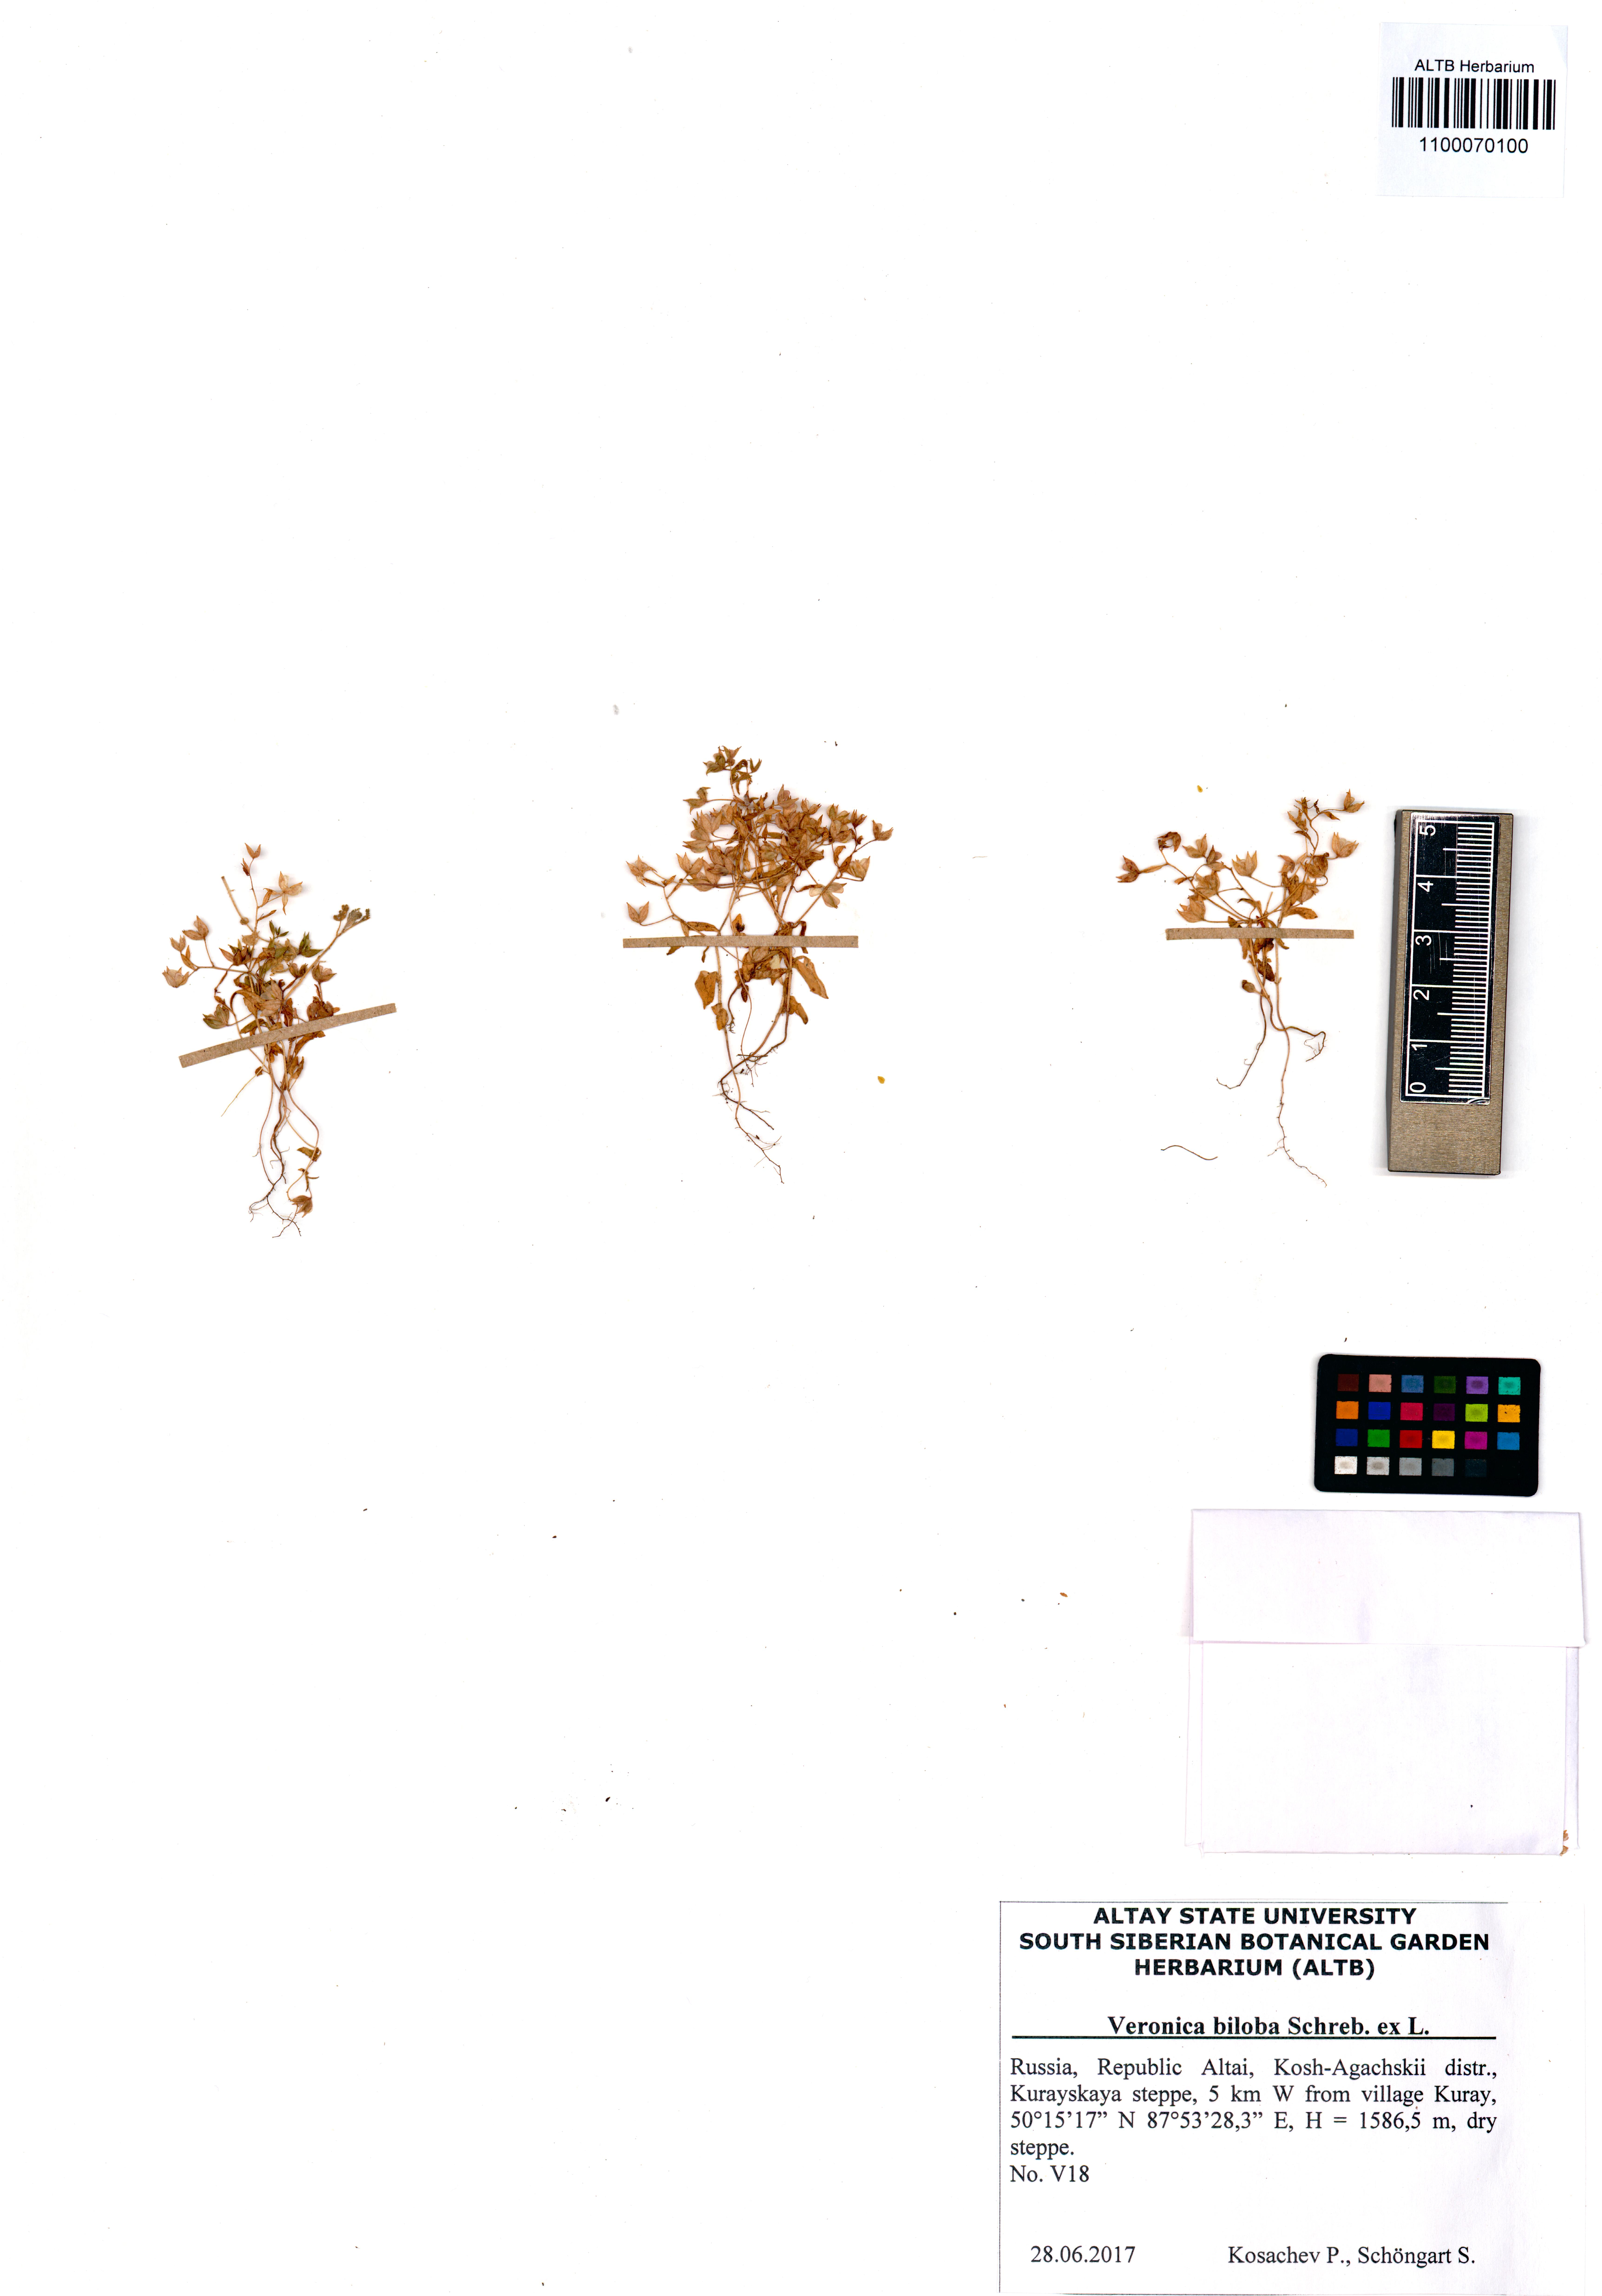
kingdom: Plantae
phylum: Tracheophyta
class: Magnoliopsida
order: Lamiales
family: Plantaginaceae
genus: Veronica
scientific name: Veronica biloba
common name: Twolobe speedwell
